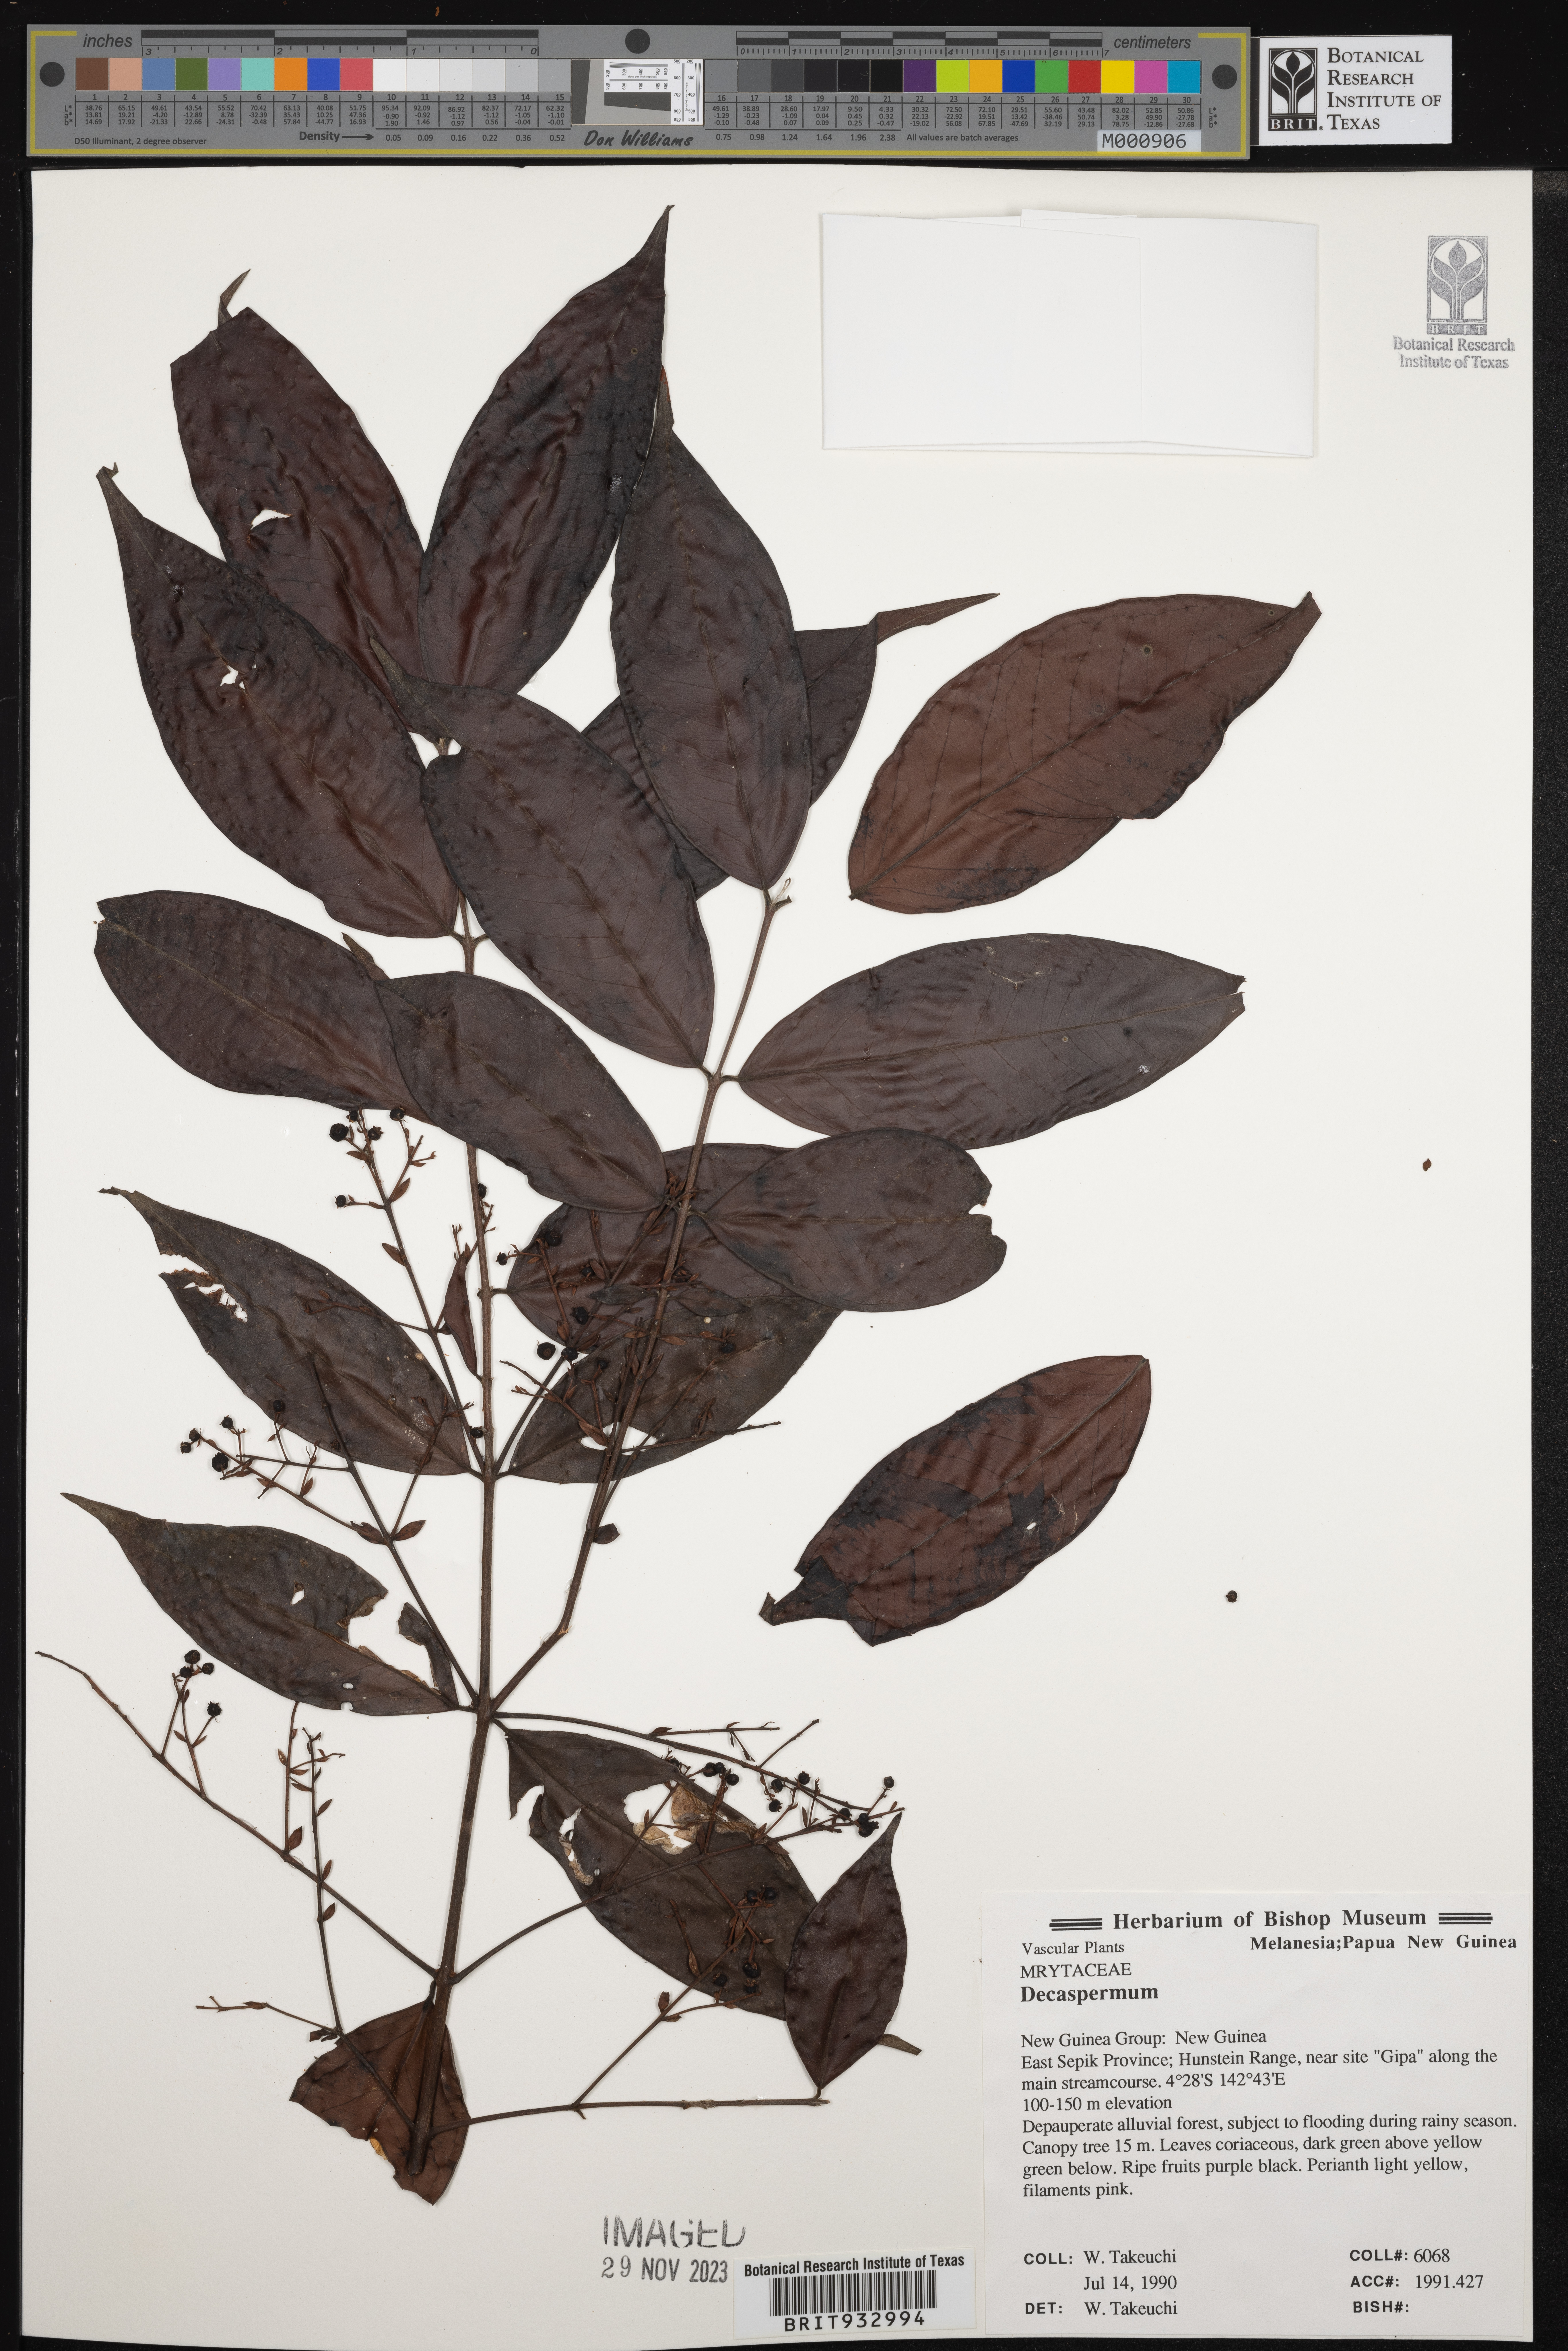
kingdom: Plantae
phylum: Tracheophyta
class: Magnoliopsida
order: Myrtales
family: Myrtaceae
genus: Decaspermum
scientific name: Decaspermum
